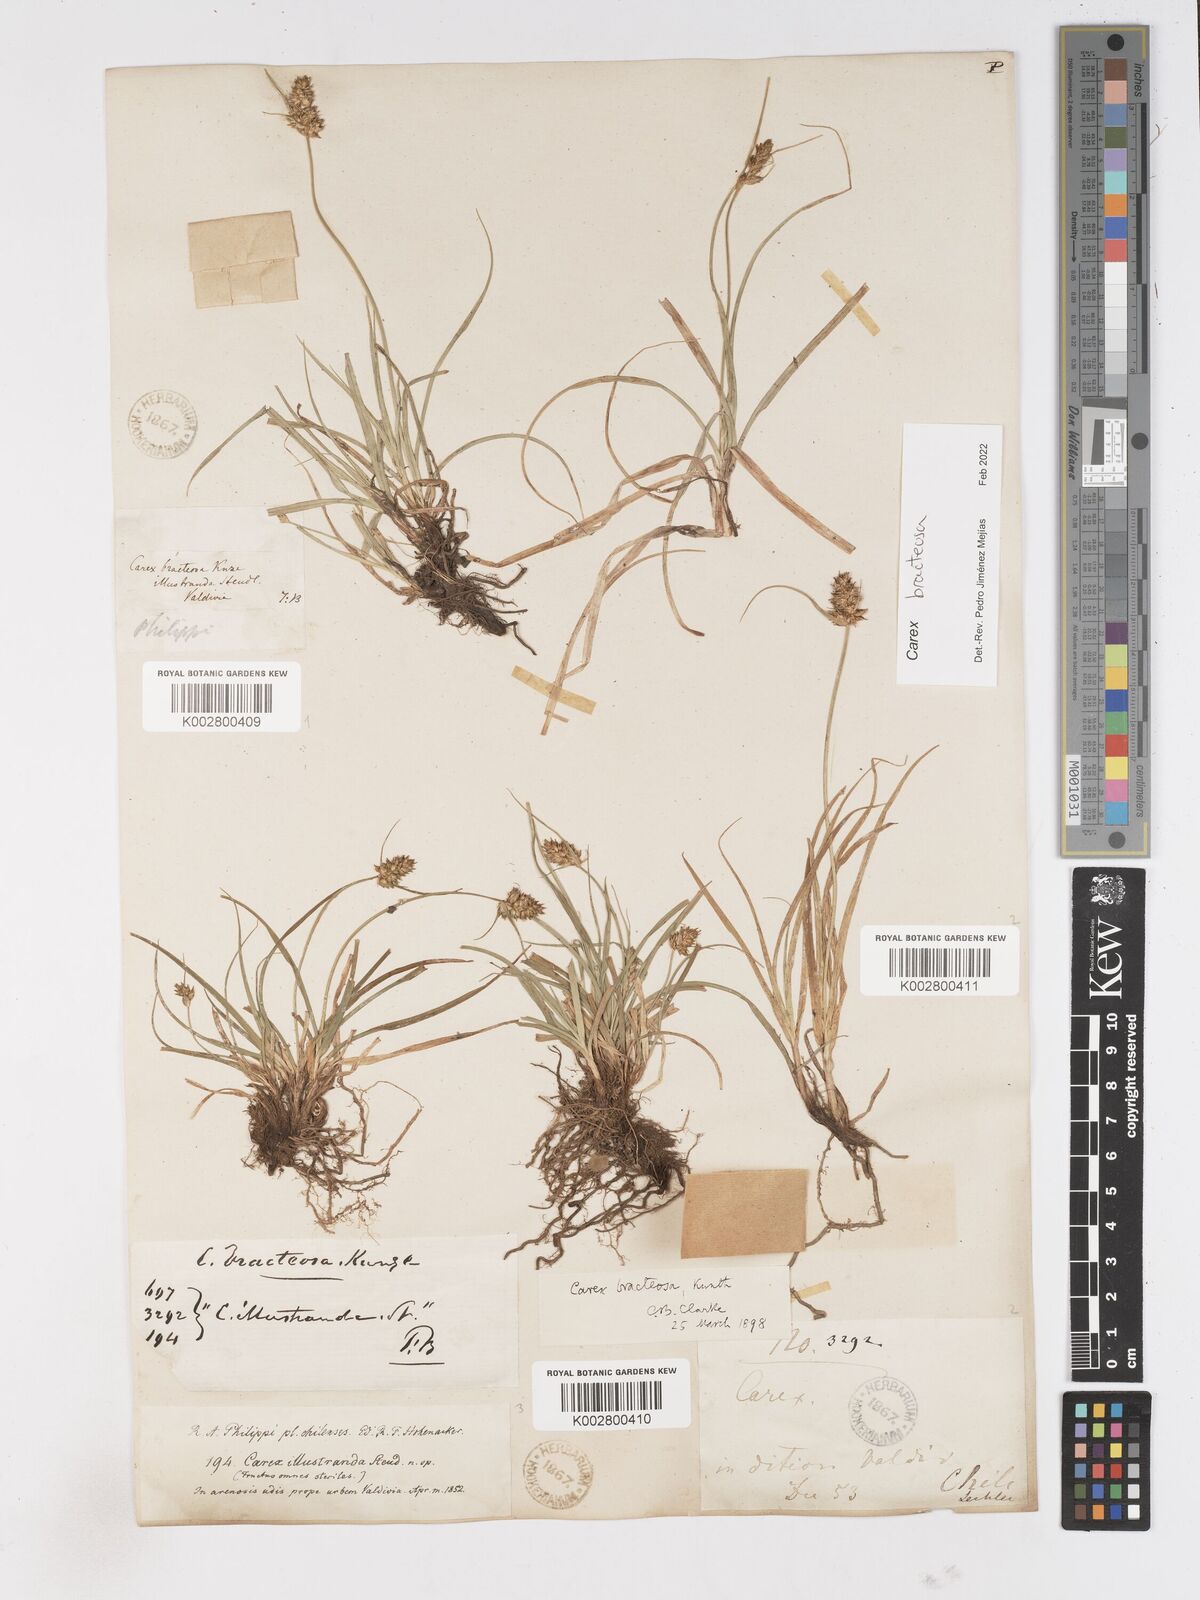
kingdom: Plantae
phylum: Tracheophyta
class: Liliopsida
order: Poales
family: Cyperaceae
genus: Carex
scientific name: Carex bracteosa
